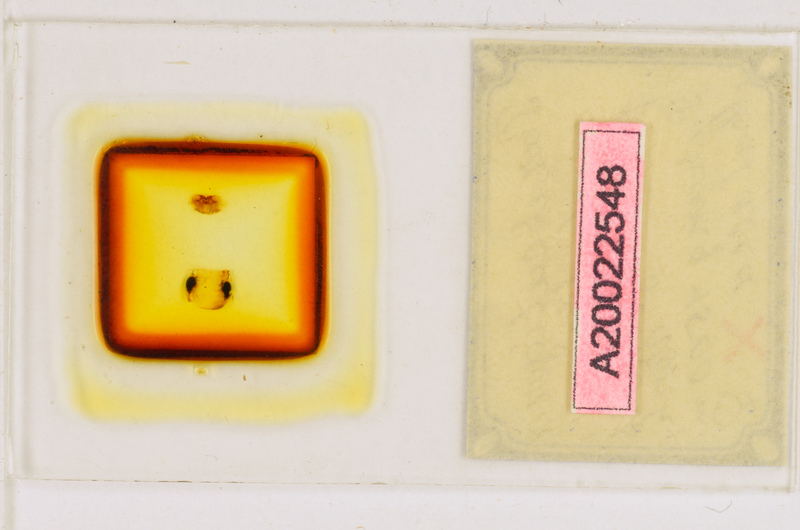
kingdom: Animalia
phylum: Arthropoda
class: Chilopoda
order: Scutigeromorpha
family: Scutigeridae
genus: Parascutigera
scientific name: Parascutigera noduligera
